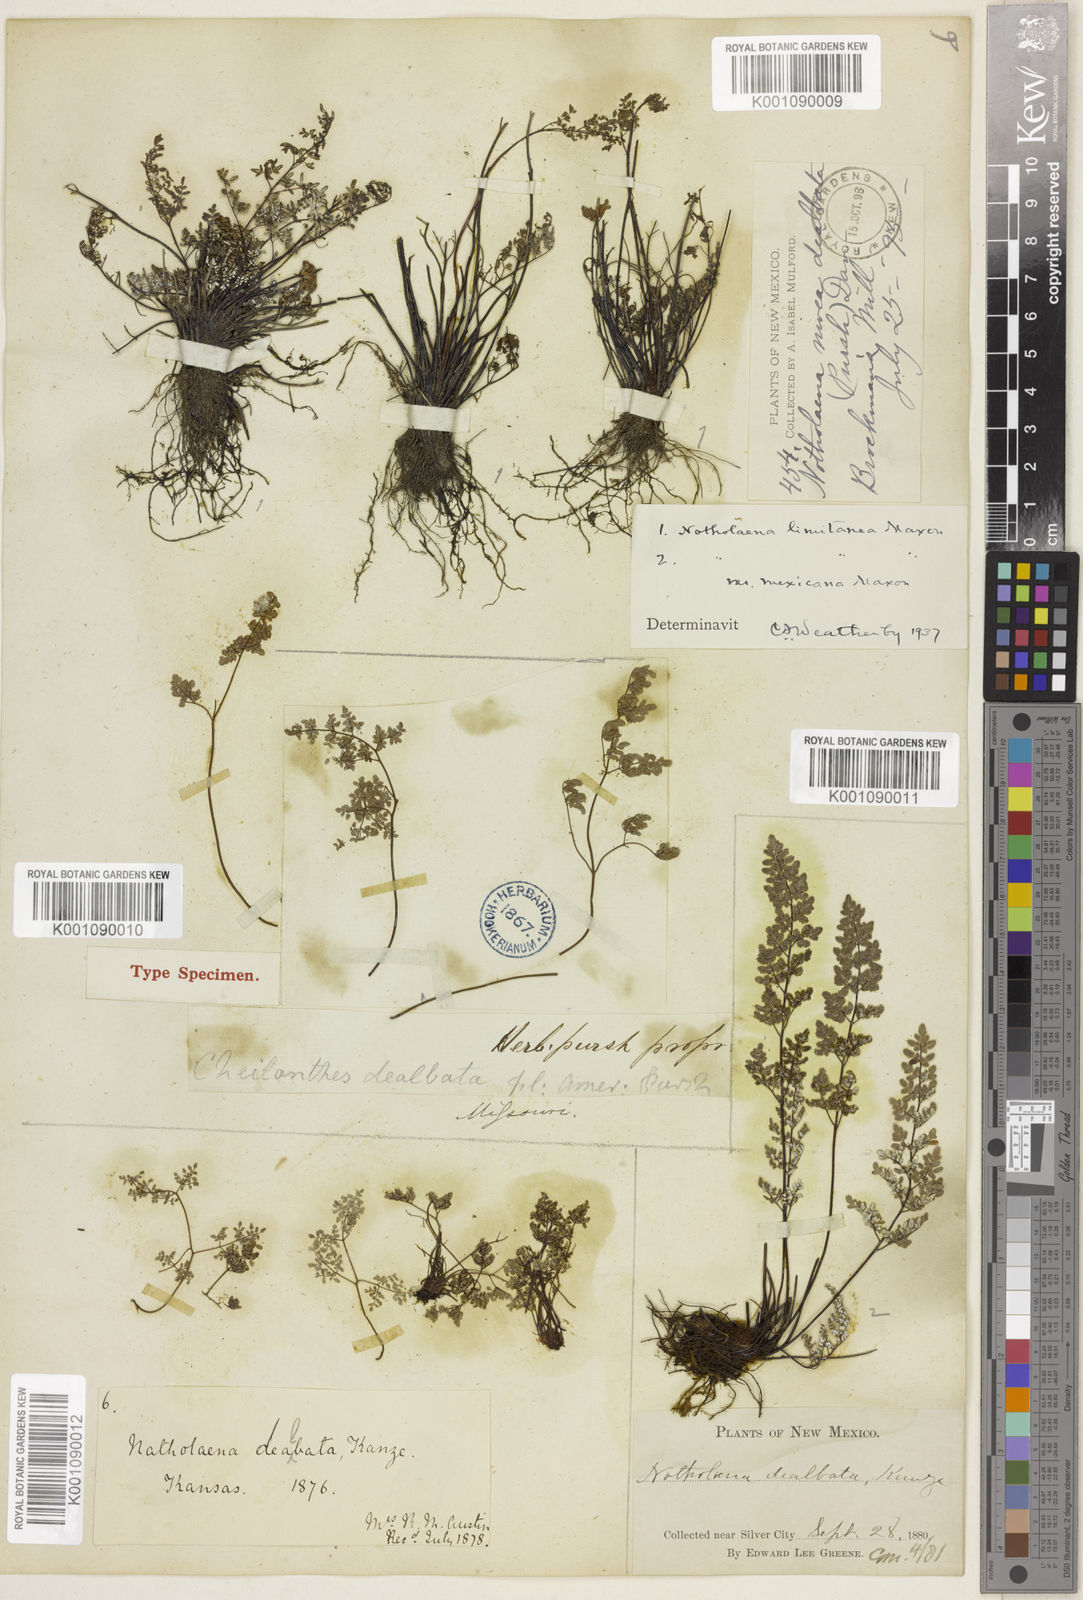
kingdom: Plantae
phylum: Tracheophyta
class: Polypodiopsida
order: Polypodiales
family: Pteridaceae
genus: Argyrochosma
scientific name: Argyrochosma limitanea
